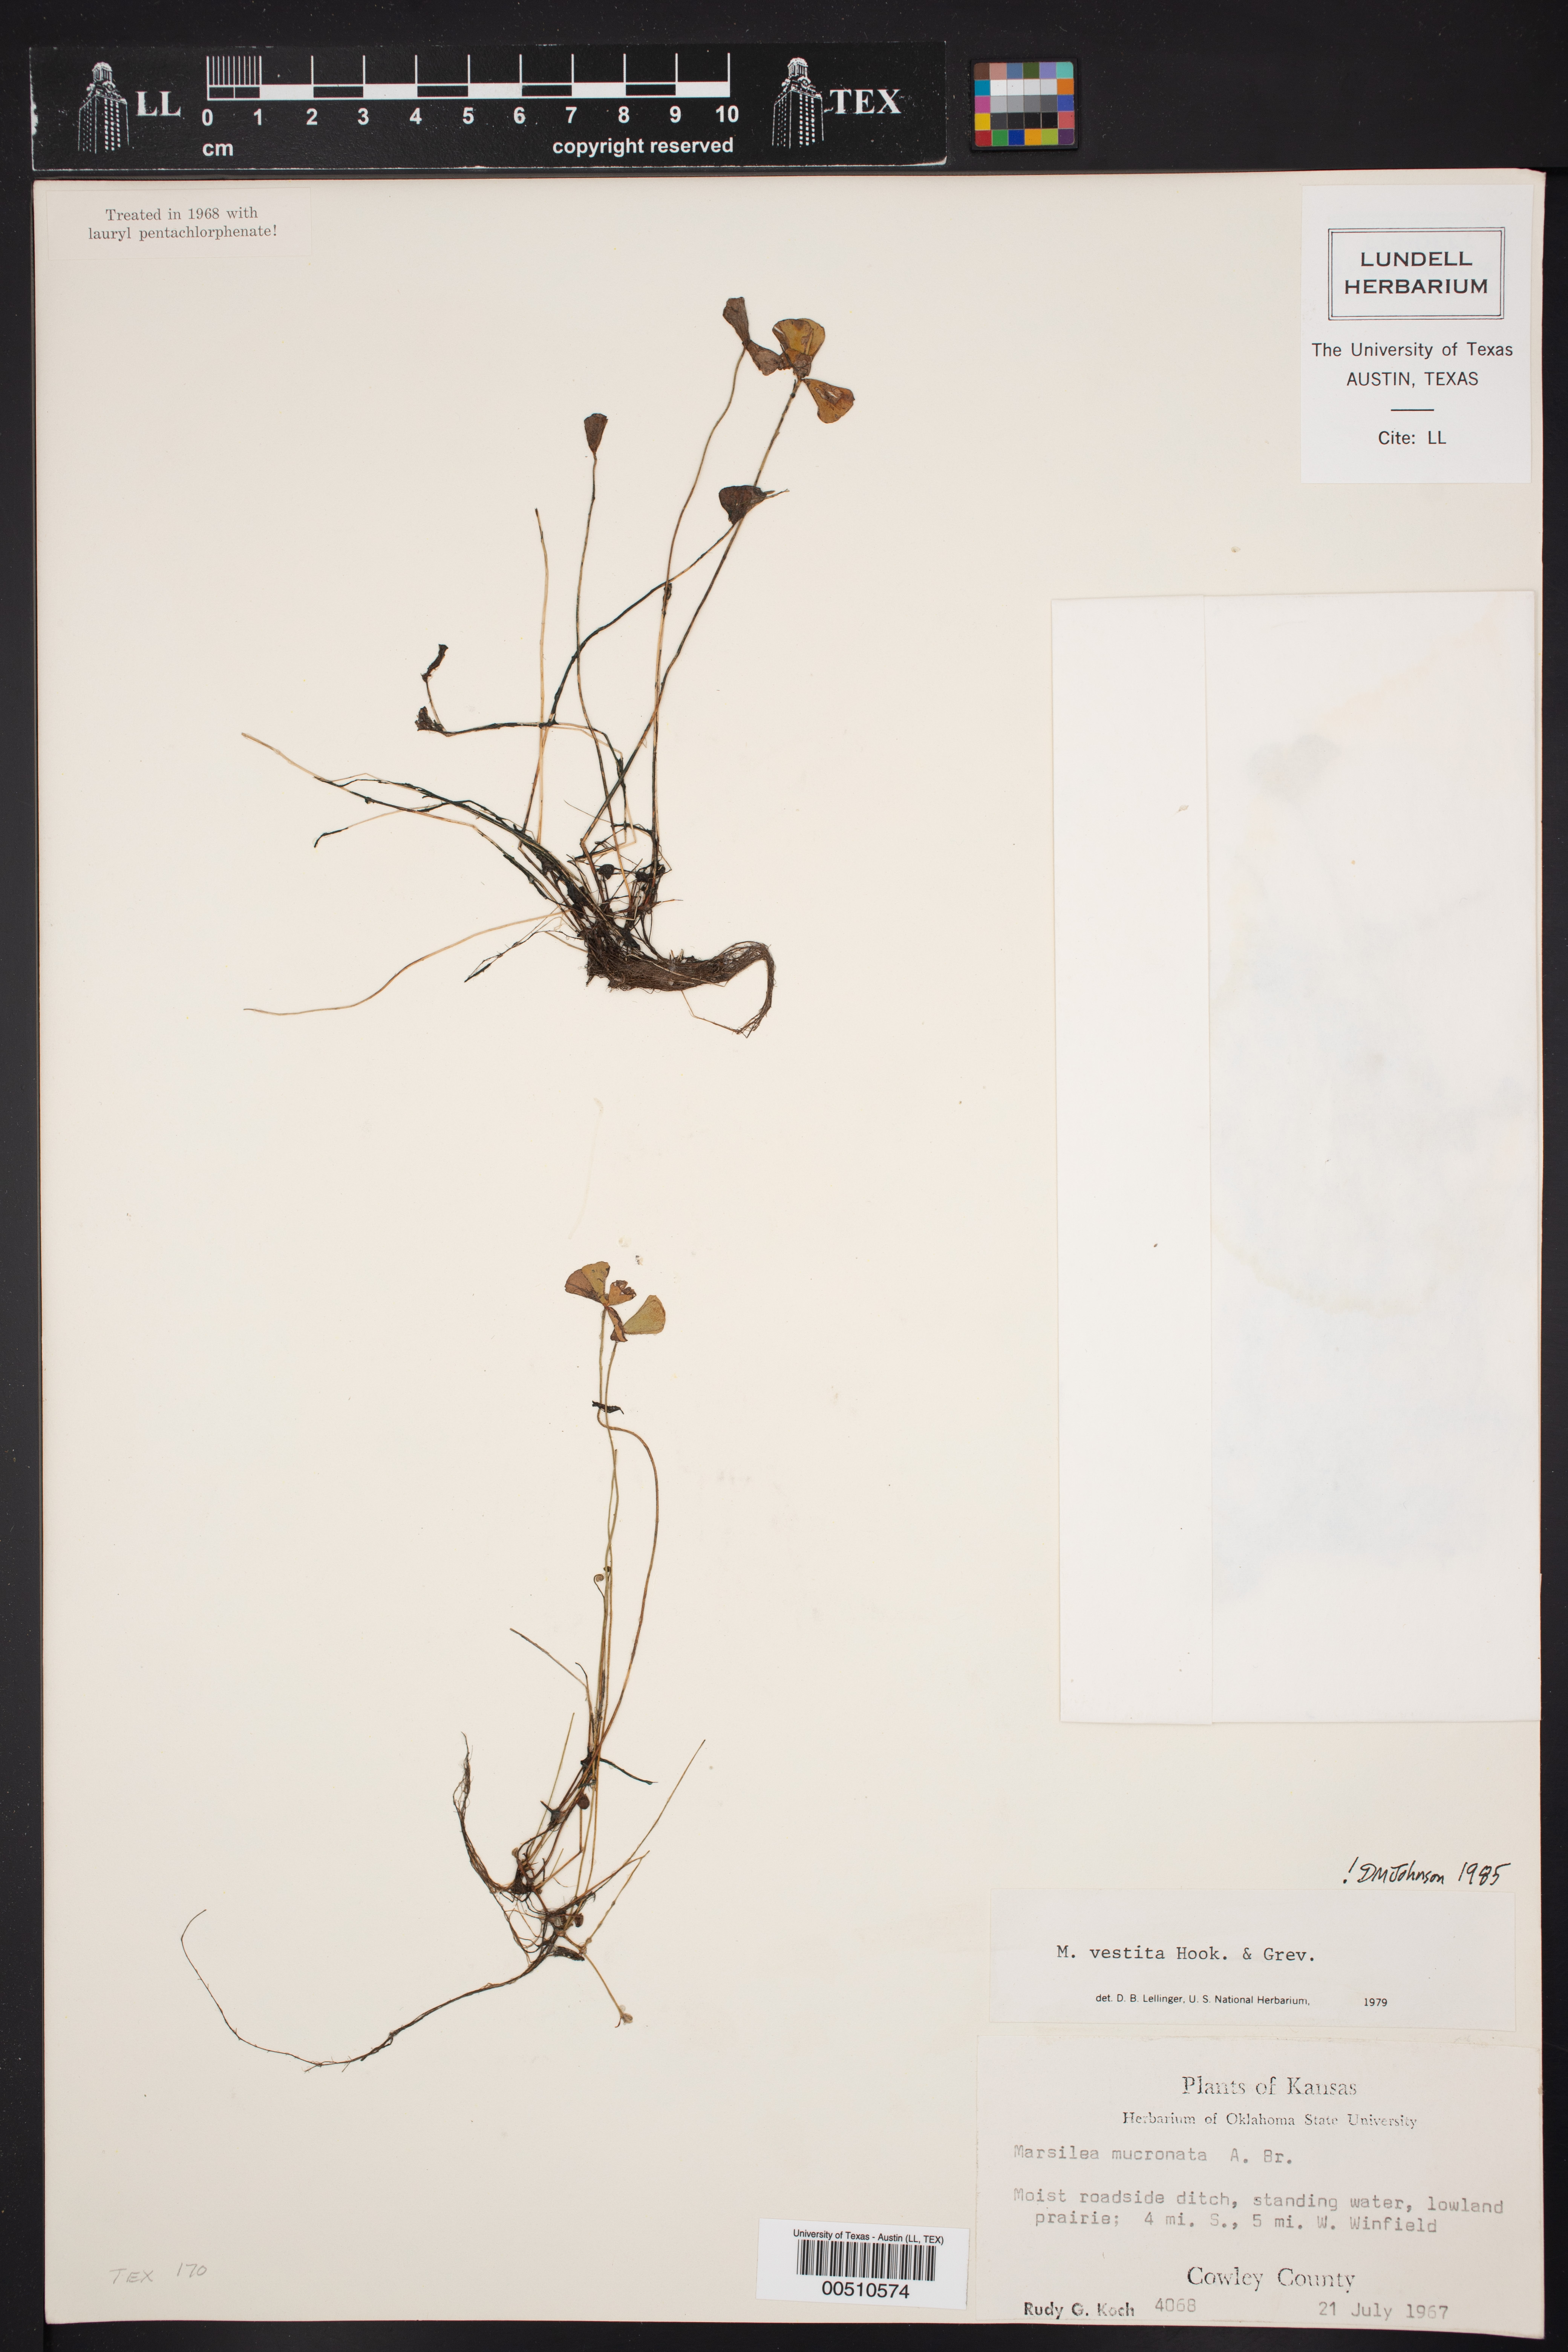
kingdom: Plantae
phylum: Tracheophyta
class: Polypodiopsida
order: Salviniales
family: Marsileaceae
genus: Marsilea
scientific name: Marsilea vestita
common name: Hooked-pepperwort
